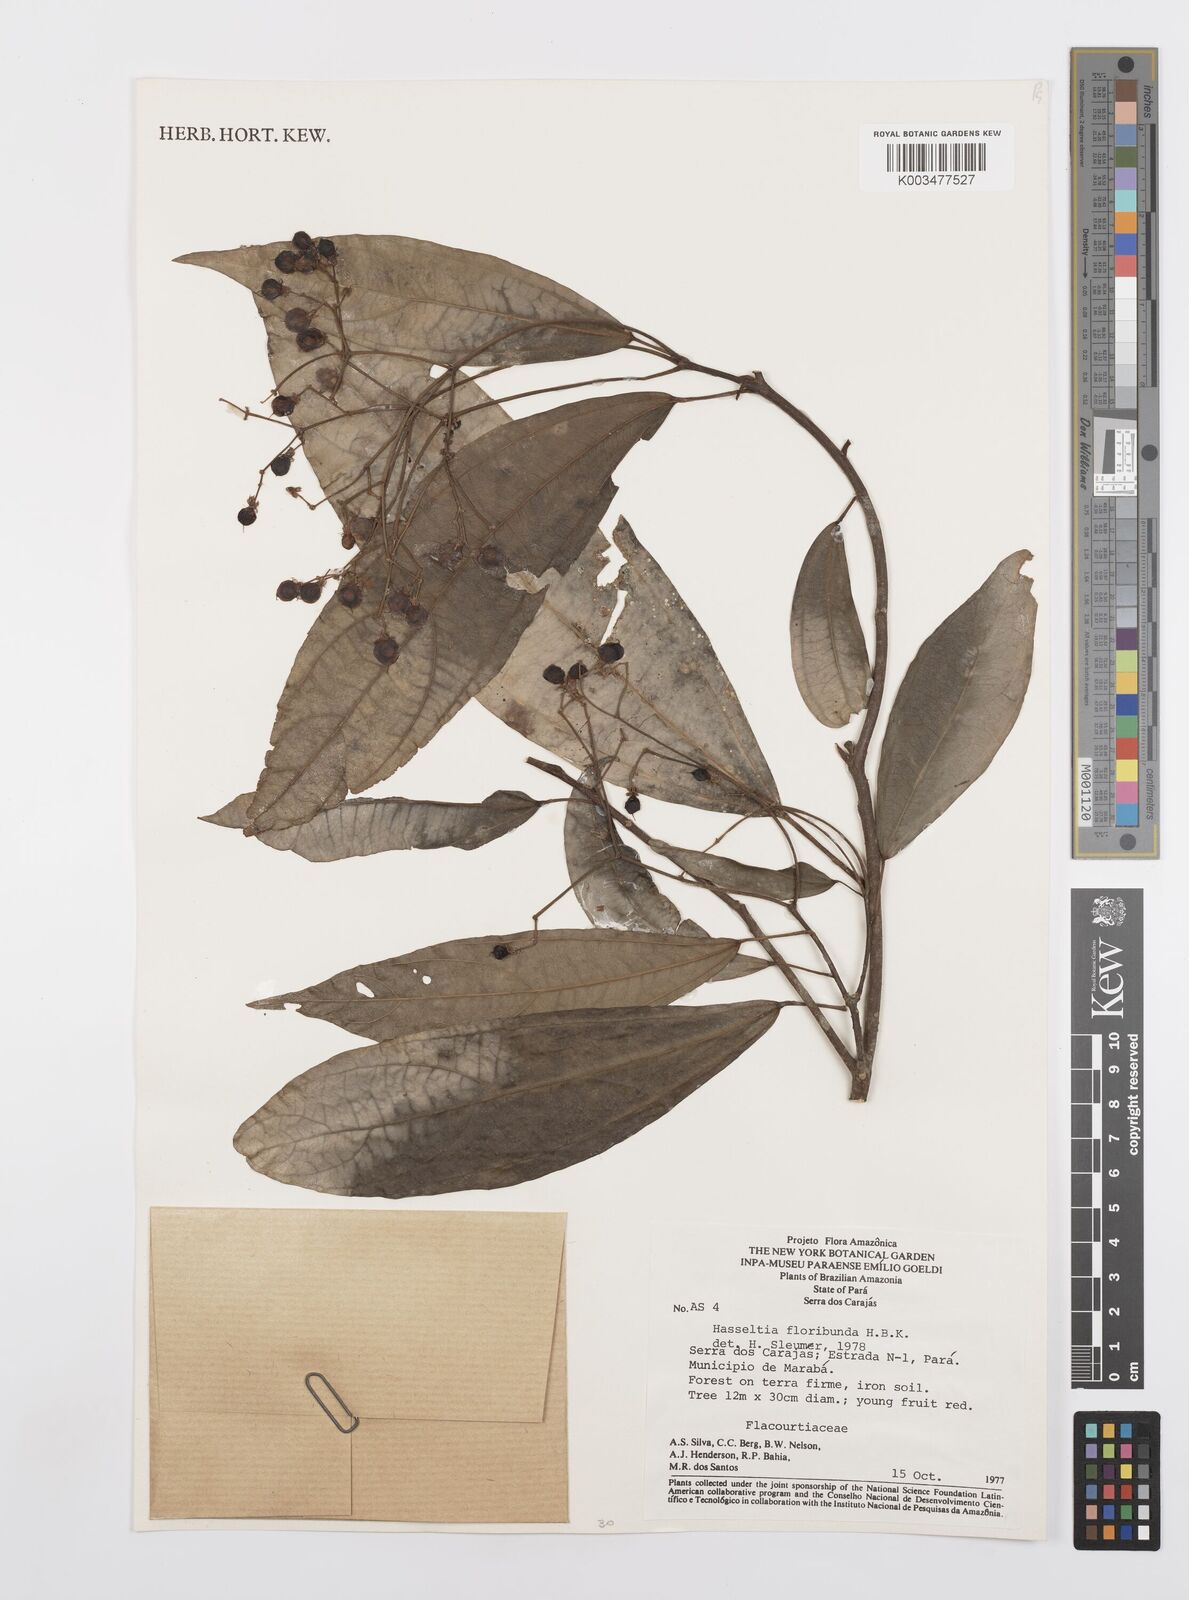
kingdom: Plantae
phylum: Tracheophyta
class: Magnoliopsida
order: Malpighiales
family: Salicaceae
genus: Hasseltia
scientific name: Hasseltia floribunda
